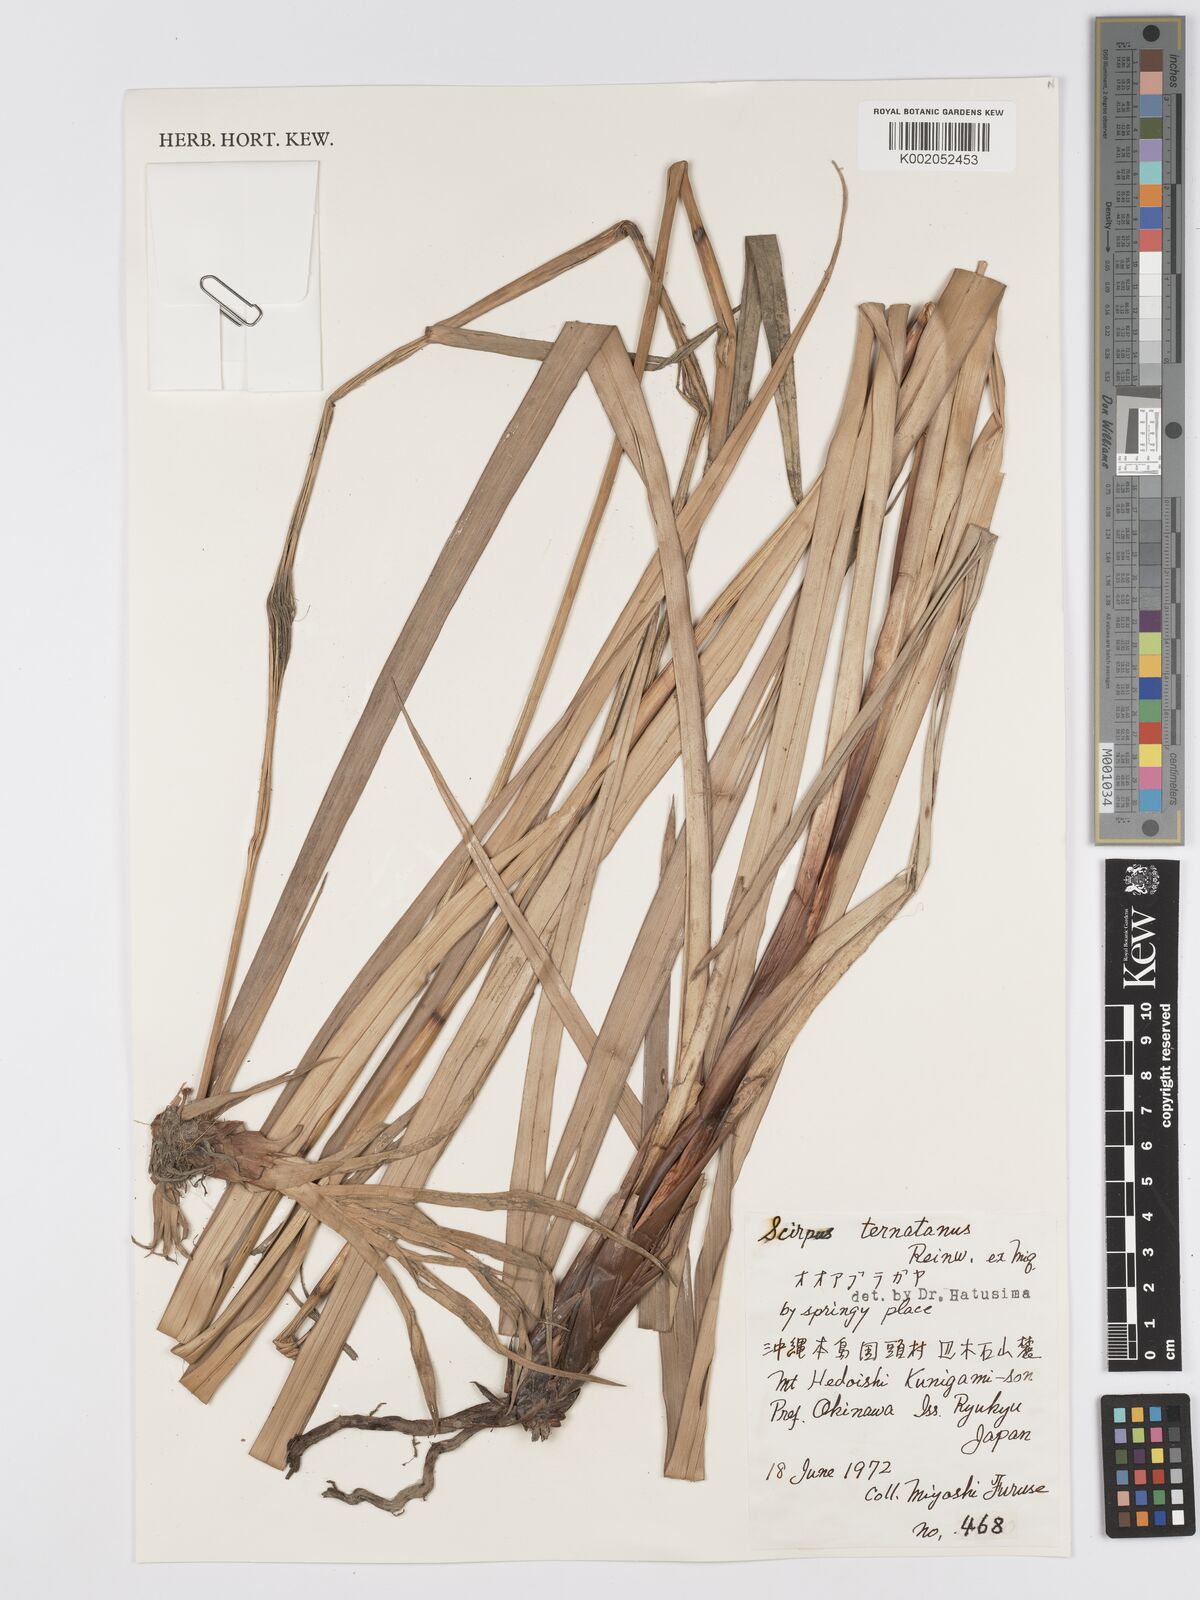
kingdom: Plantae
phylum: Tracheophyta
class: Liliopsida
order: Poales
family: Cyperaceae
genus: Scirpus
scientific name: Scirpus ternatanus
